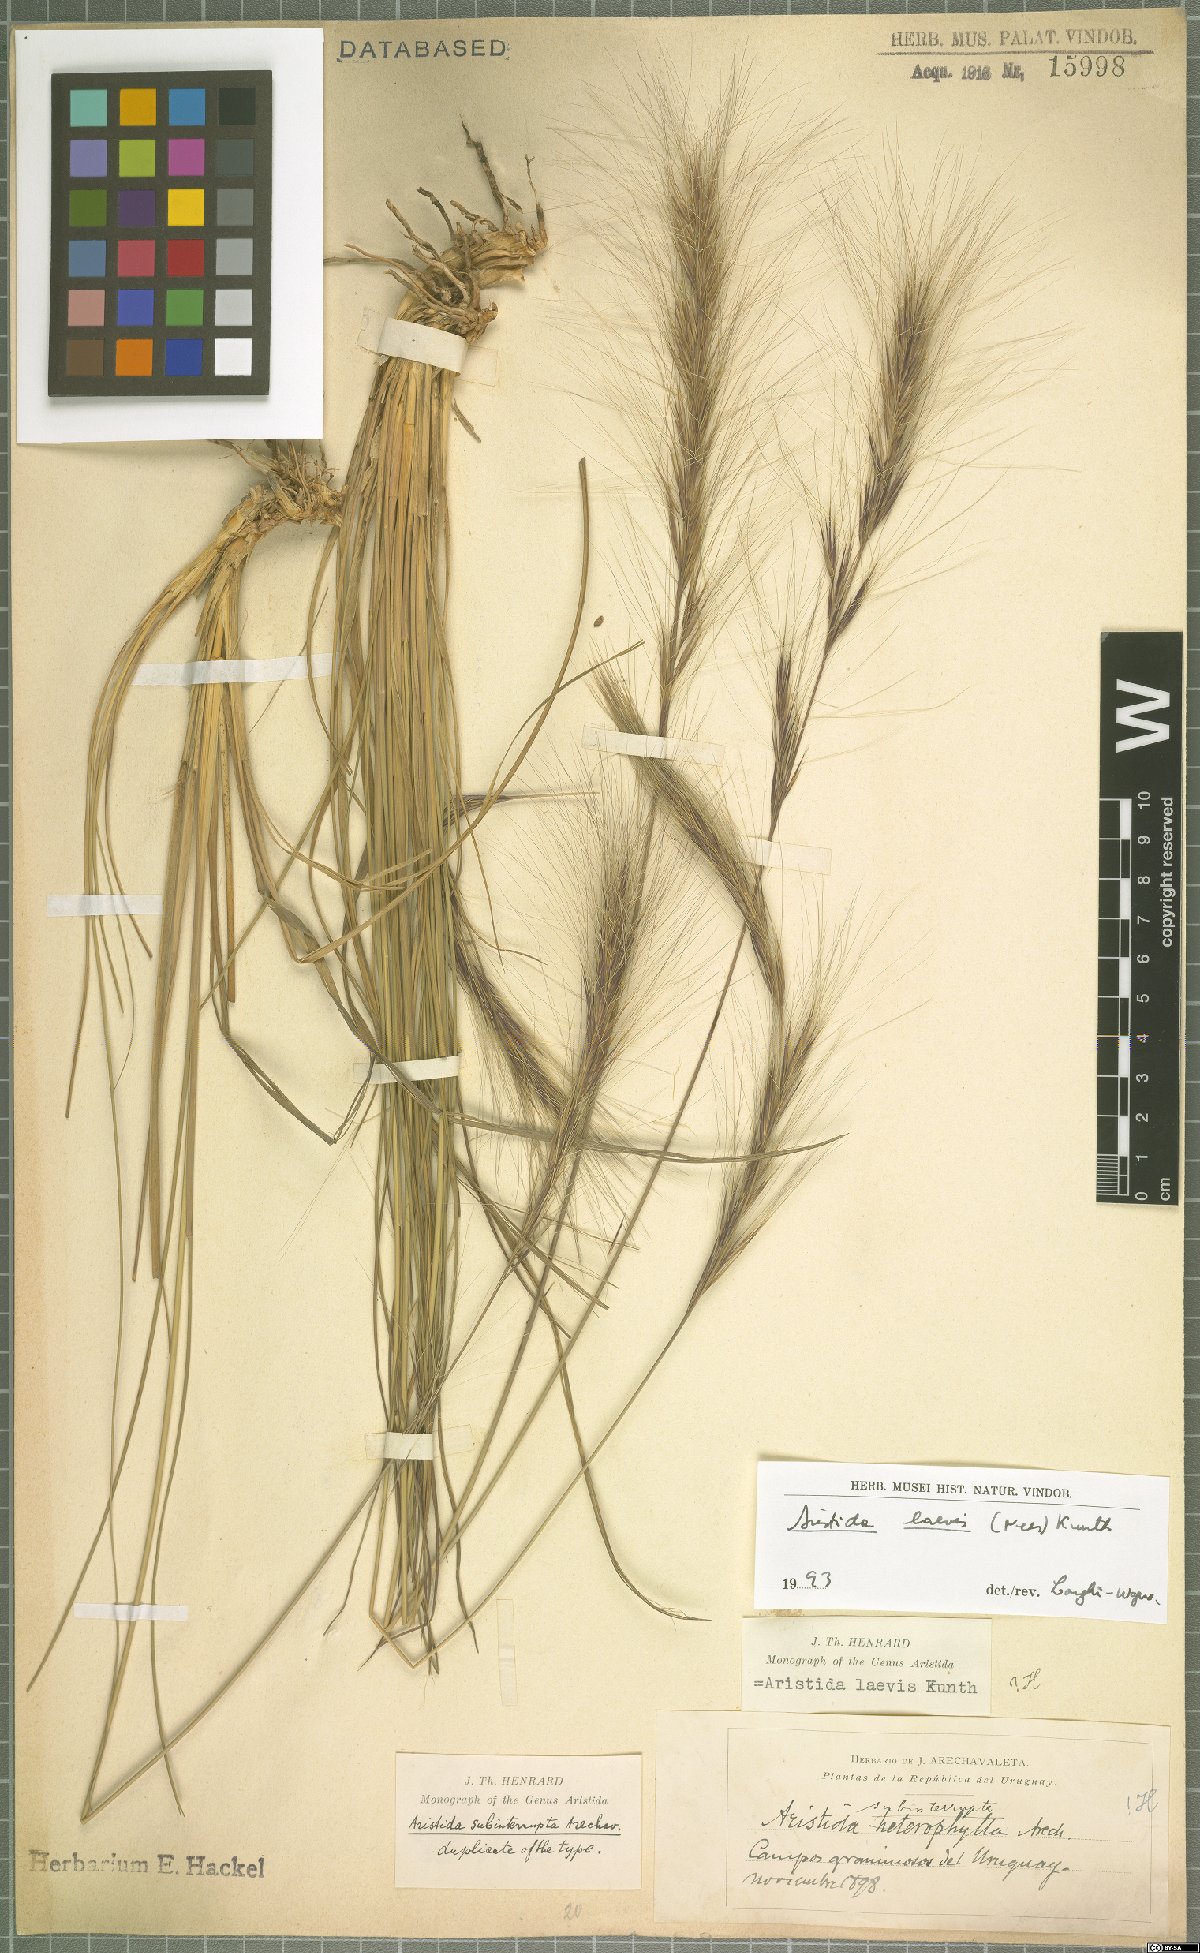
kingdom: Plantae
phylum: Tracheophyta
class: Liliopsida
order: Poales
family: Poaceae
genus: Aristida
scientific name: Aristida laevis
